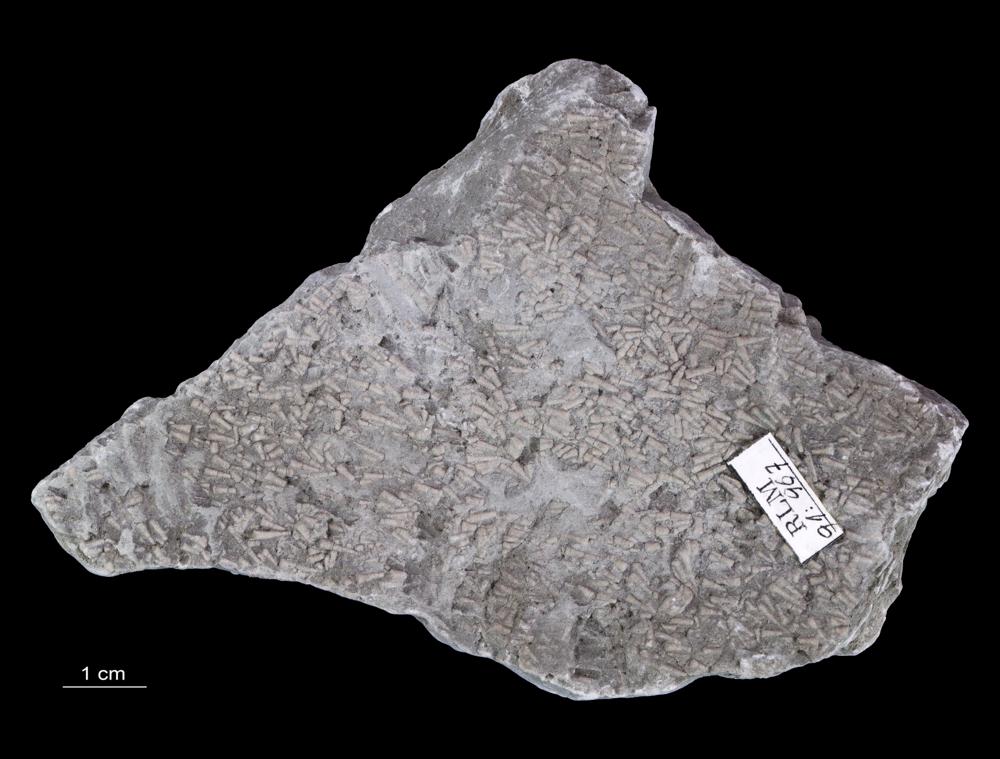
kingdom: Animalia
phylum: Annelida
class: Polychaeta
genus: Volborthella
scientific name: Volborthella tenuis
